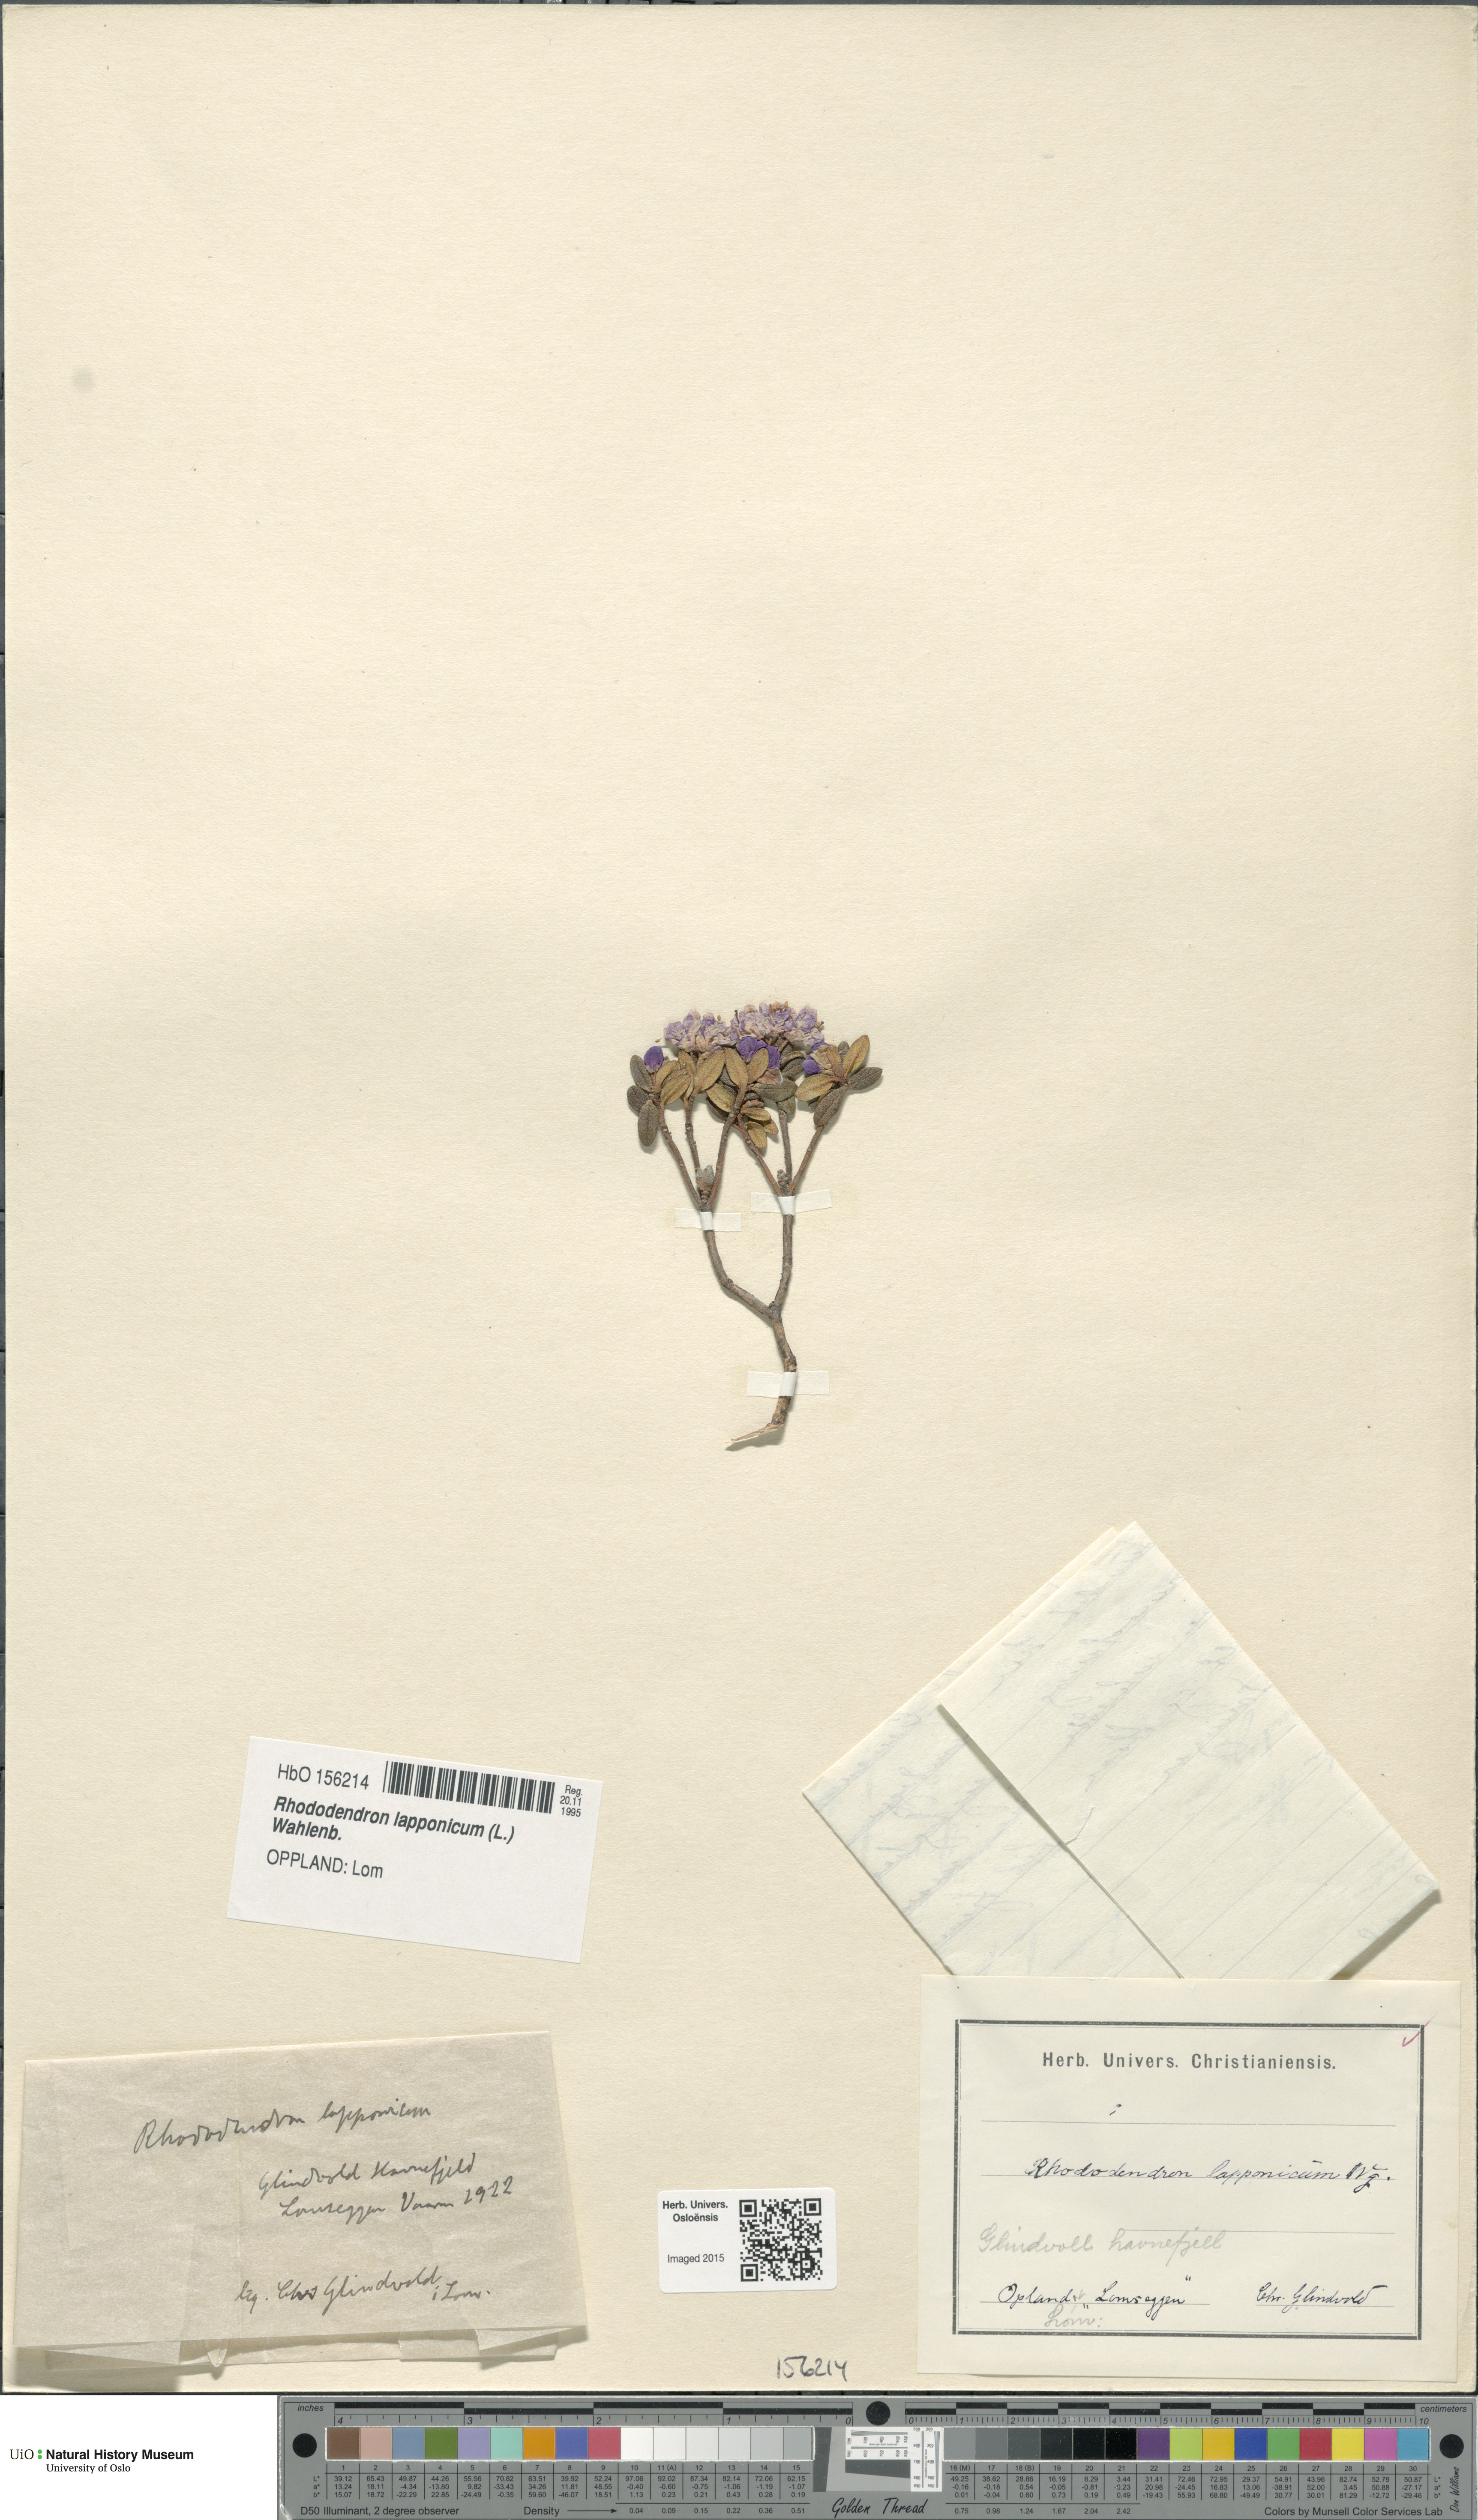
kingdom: Plantae
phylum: Tracheophyta
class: Magnoliopsida
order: Ericales
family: Ericaceae
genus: Rhododendron
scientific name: Rhododendron lapponicum
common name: Lapland rhododendron
